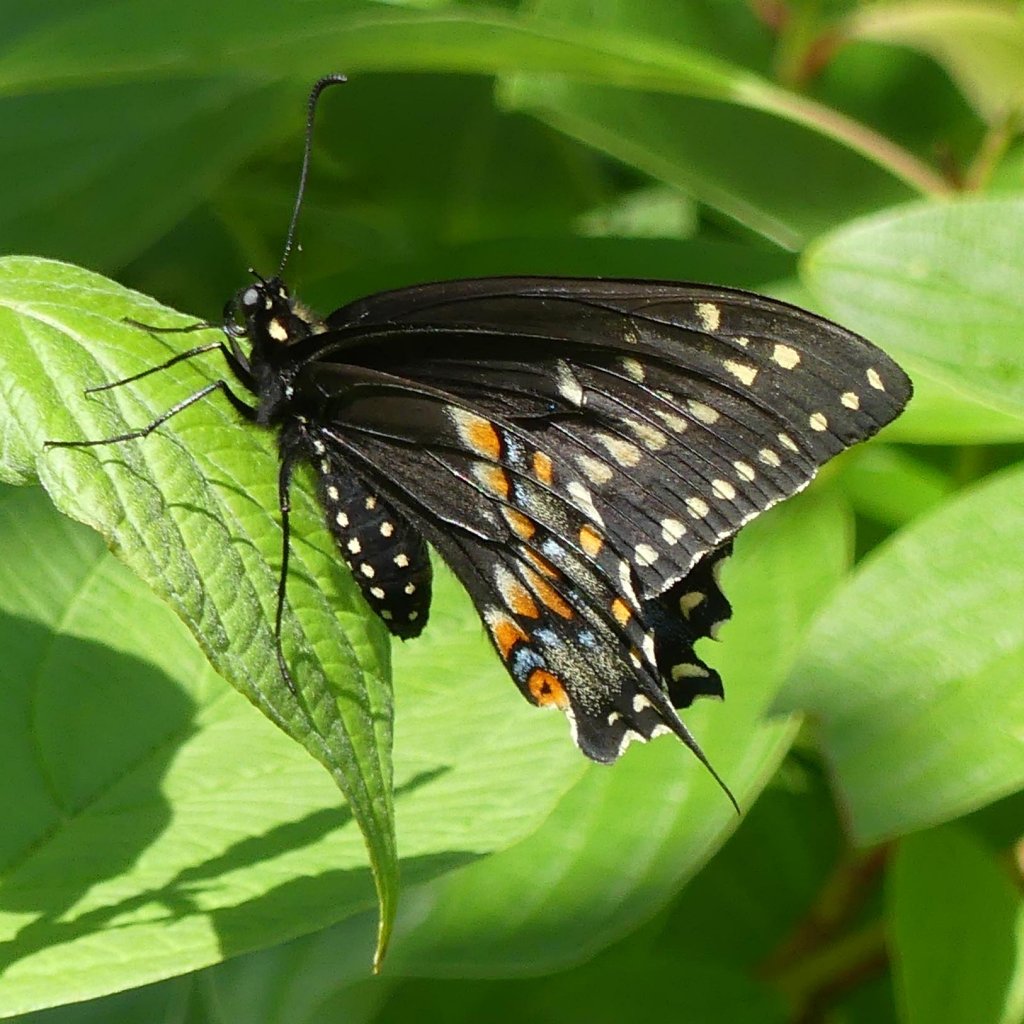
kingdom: Animalia
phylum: Arthropoda
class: Insecta
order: Lepidoptera
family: Papilionidae
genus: Papilio
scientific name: Papilio polyxenes
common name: Black Swallowtail
